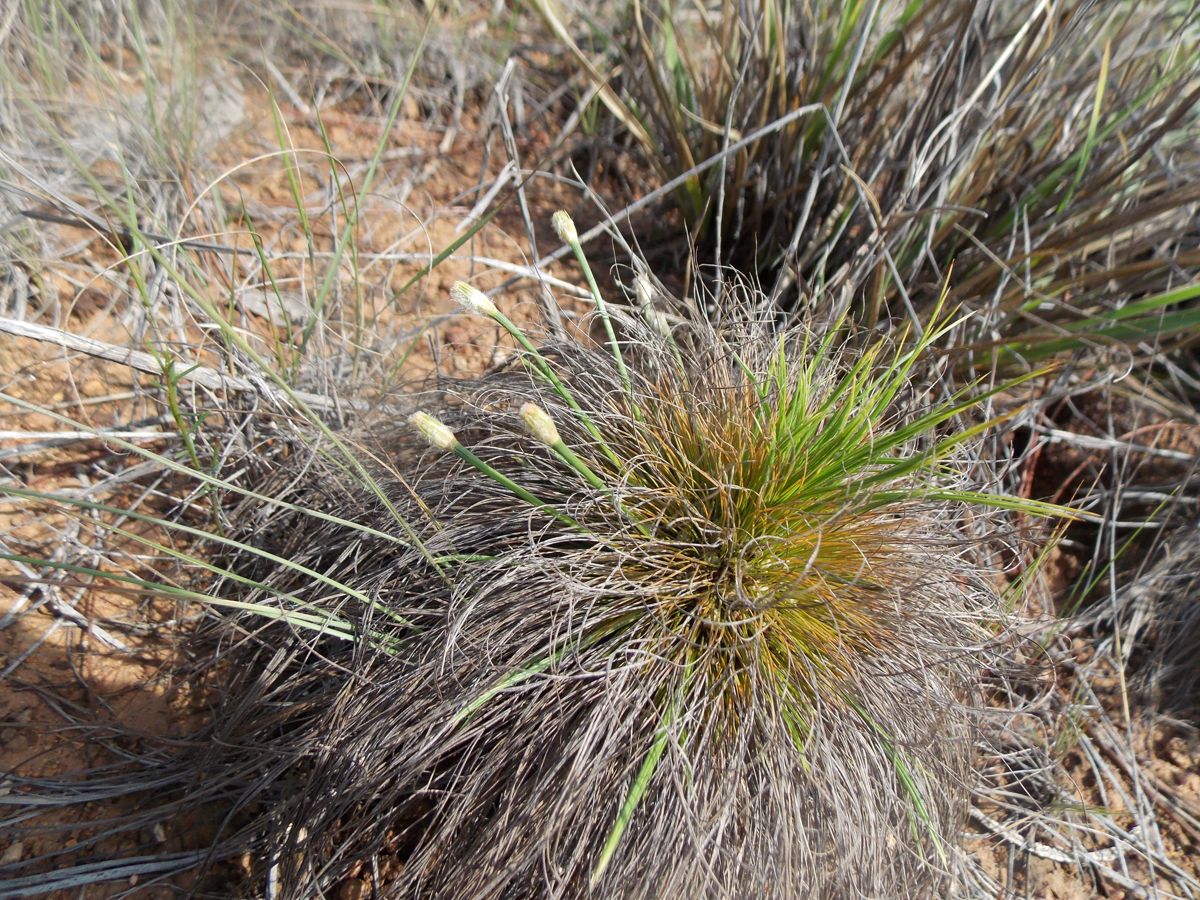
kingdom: Plantae
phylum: Tracheophyta
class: Liliopsida
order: Poales
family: Cyperaceae
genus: Bulbostylis
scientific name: Bulbostylis paradoxa
